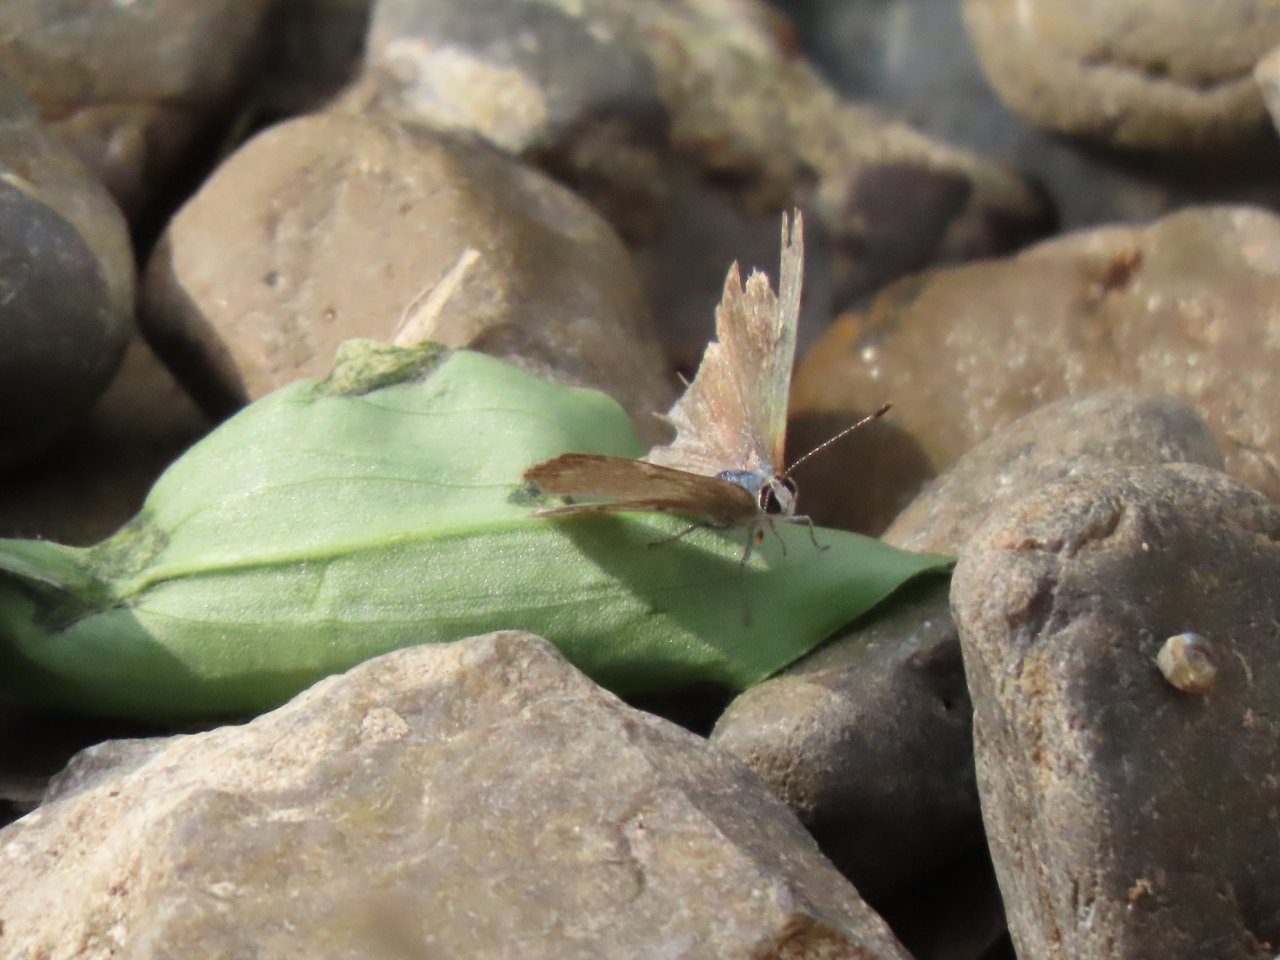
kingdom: Animalia
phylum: Arthropoda
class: Insecta
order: Lepidoptera
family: Lycaenidae
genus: Callicista
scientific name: Callicista columella
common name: Mallow Scrub-Hairstreak
